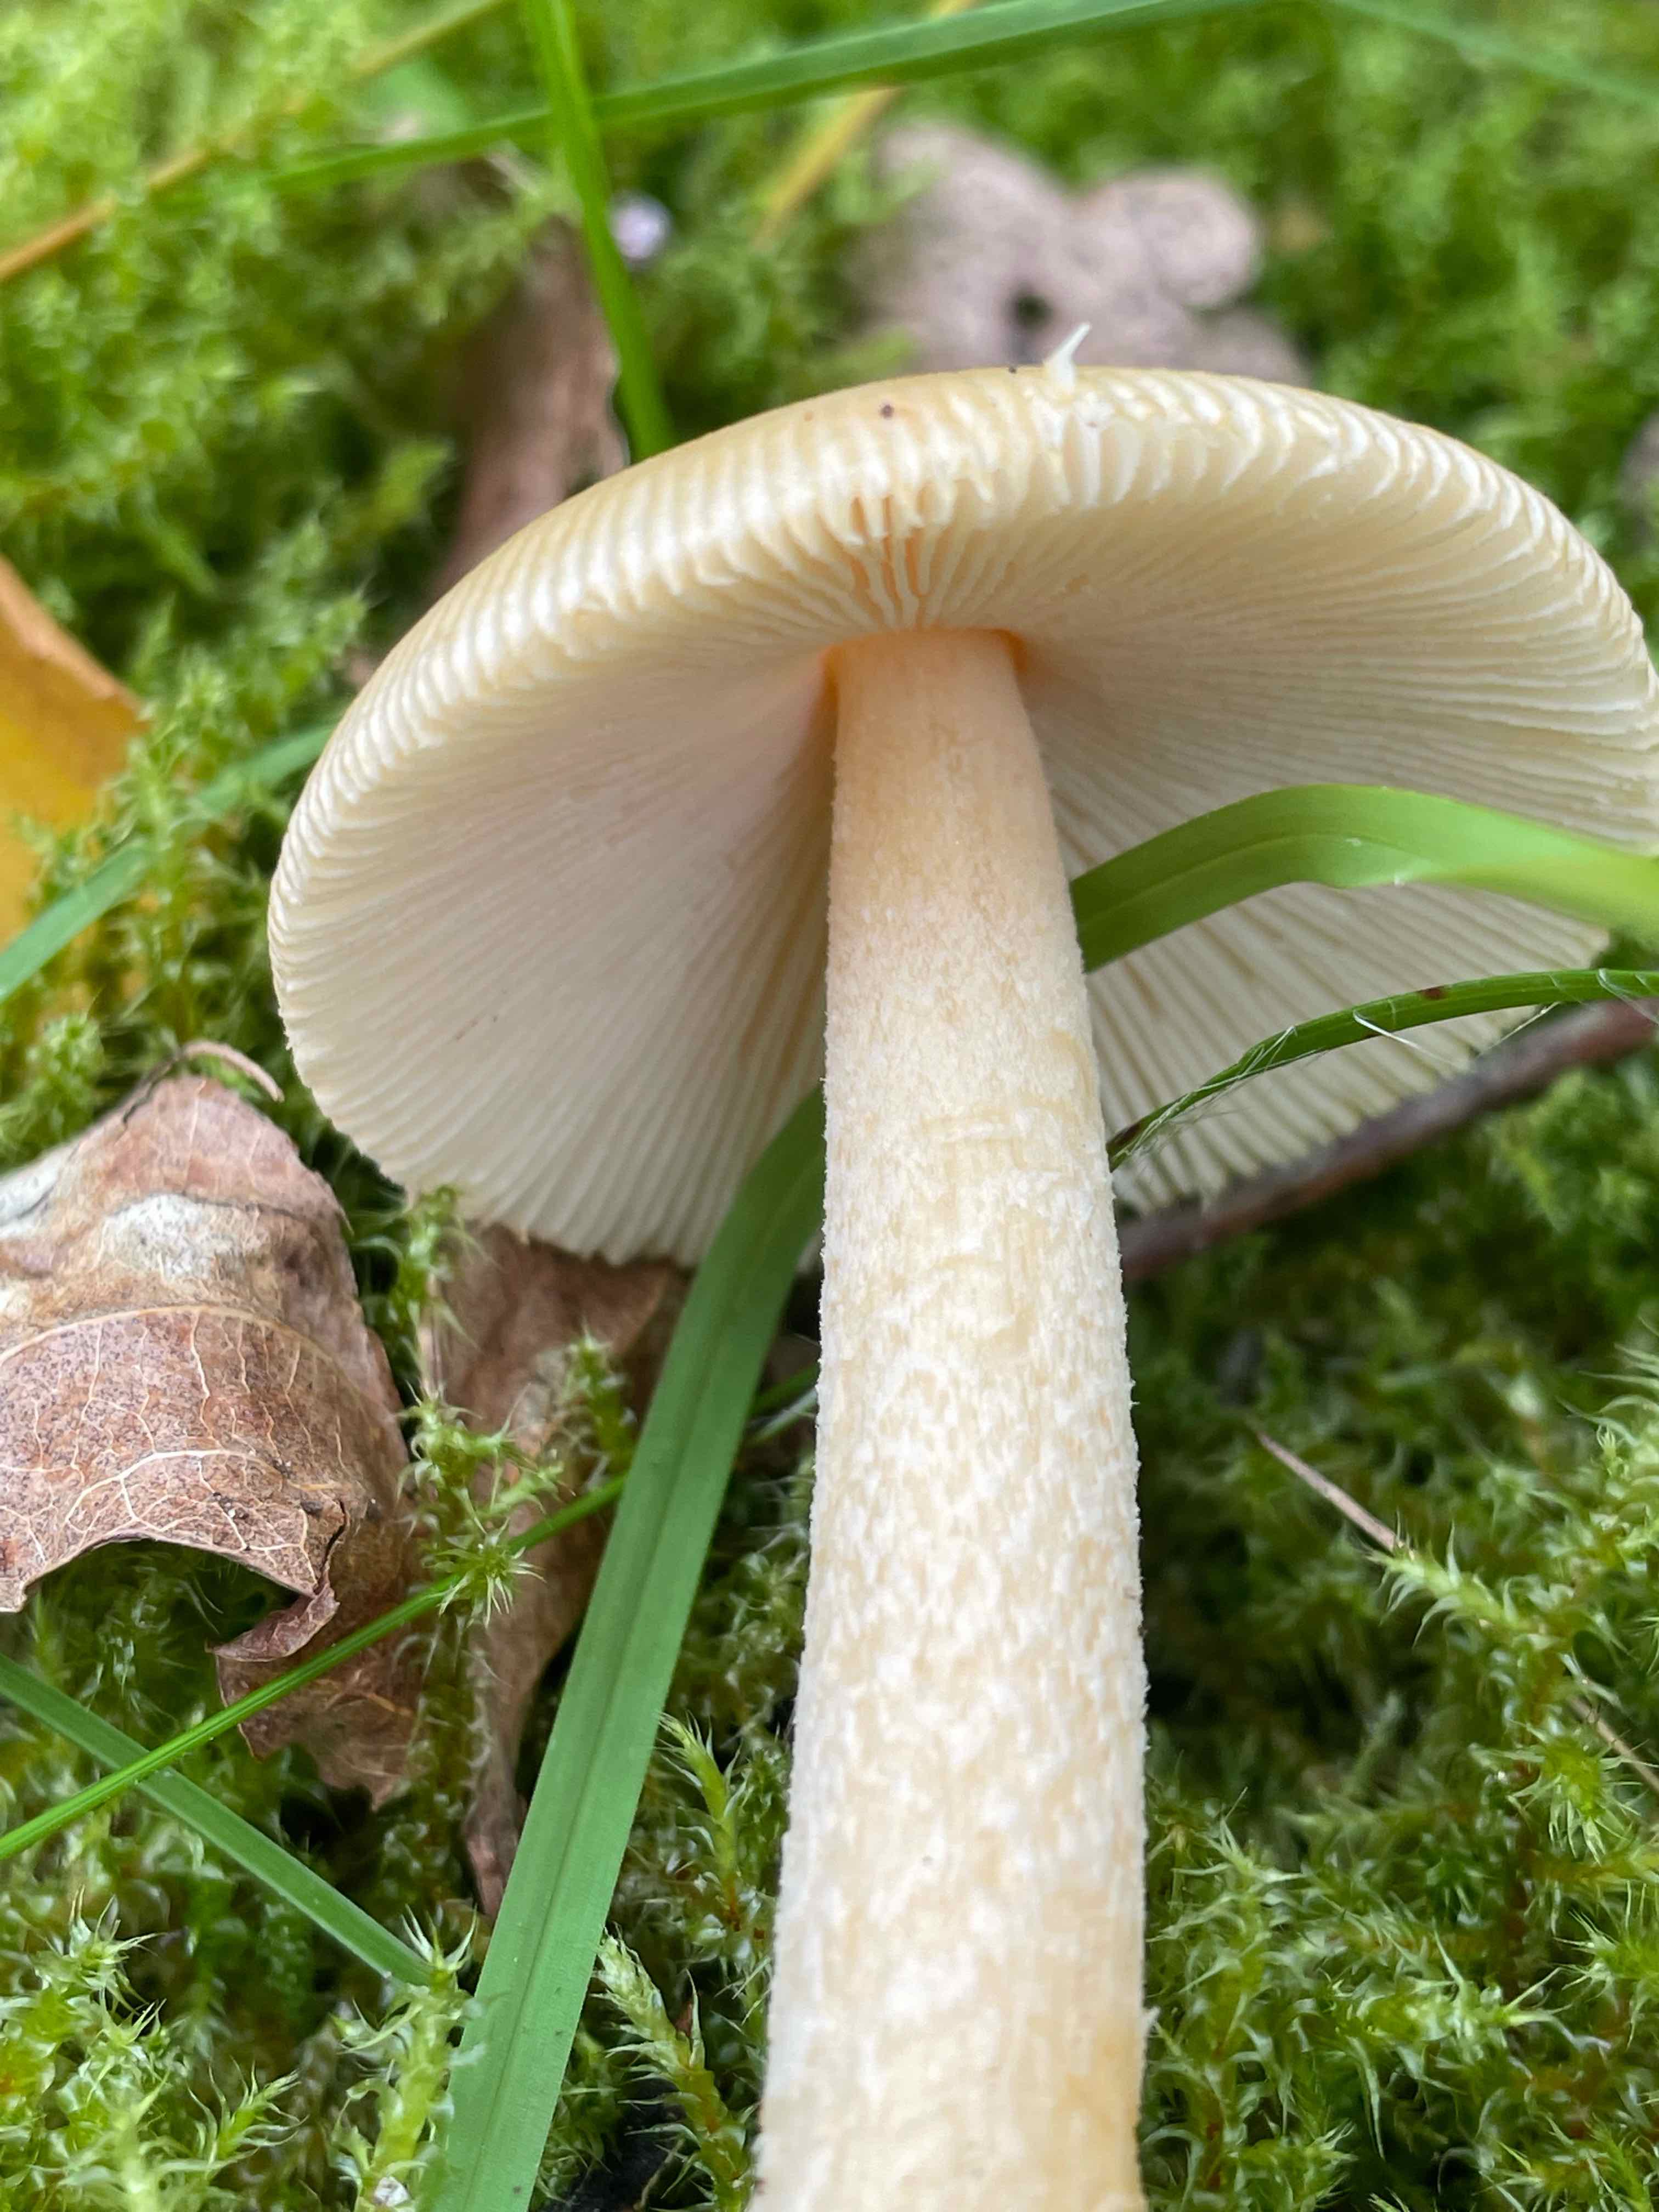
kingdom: Fungi
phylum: Basidiomycota
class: Agaricomycetes
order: Agaricales
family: Amanitaceae
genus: Amanita
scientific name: Amanita crocea
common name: gylden kam-fluesvamp
